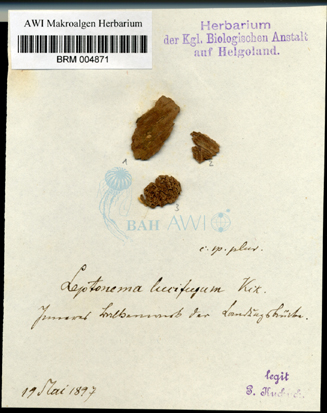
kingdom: Chromista
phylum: Ochrophyta
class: Phaeophyceae
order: Ectocarpales
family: Ectocarpaceae
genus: Pilinia
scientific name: Pilinia rimosa
